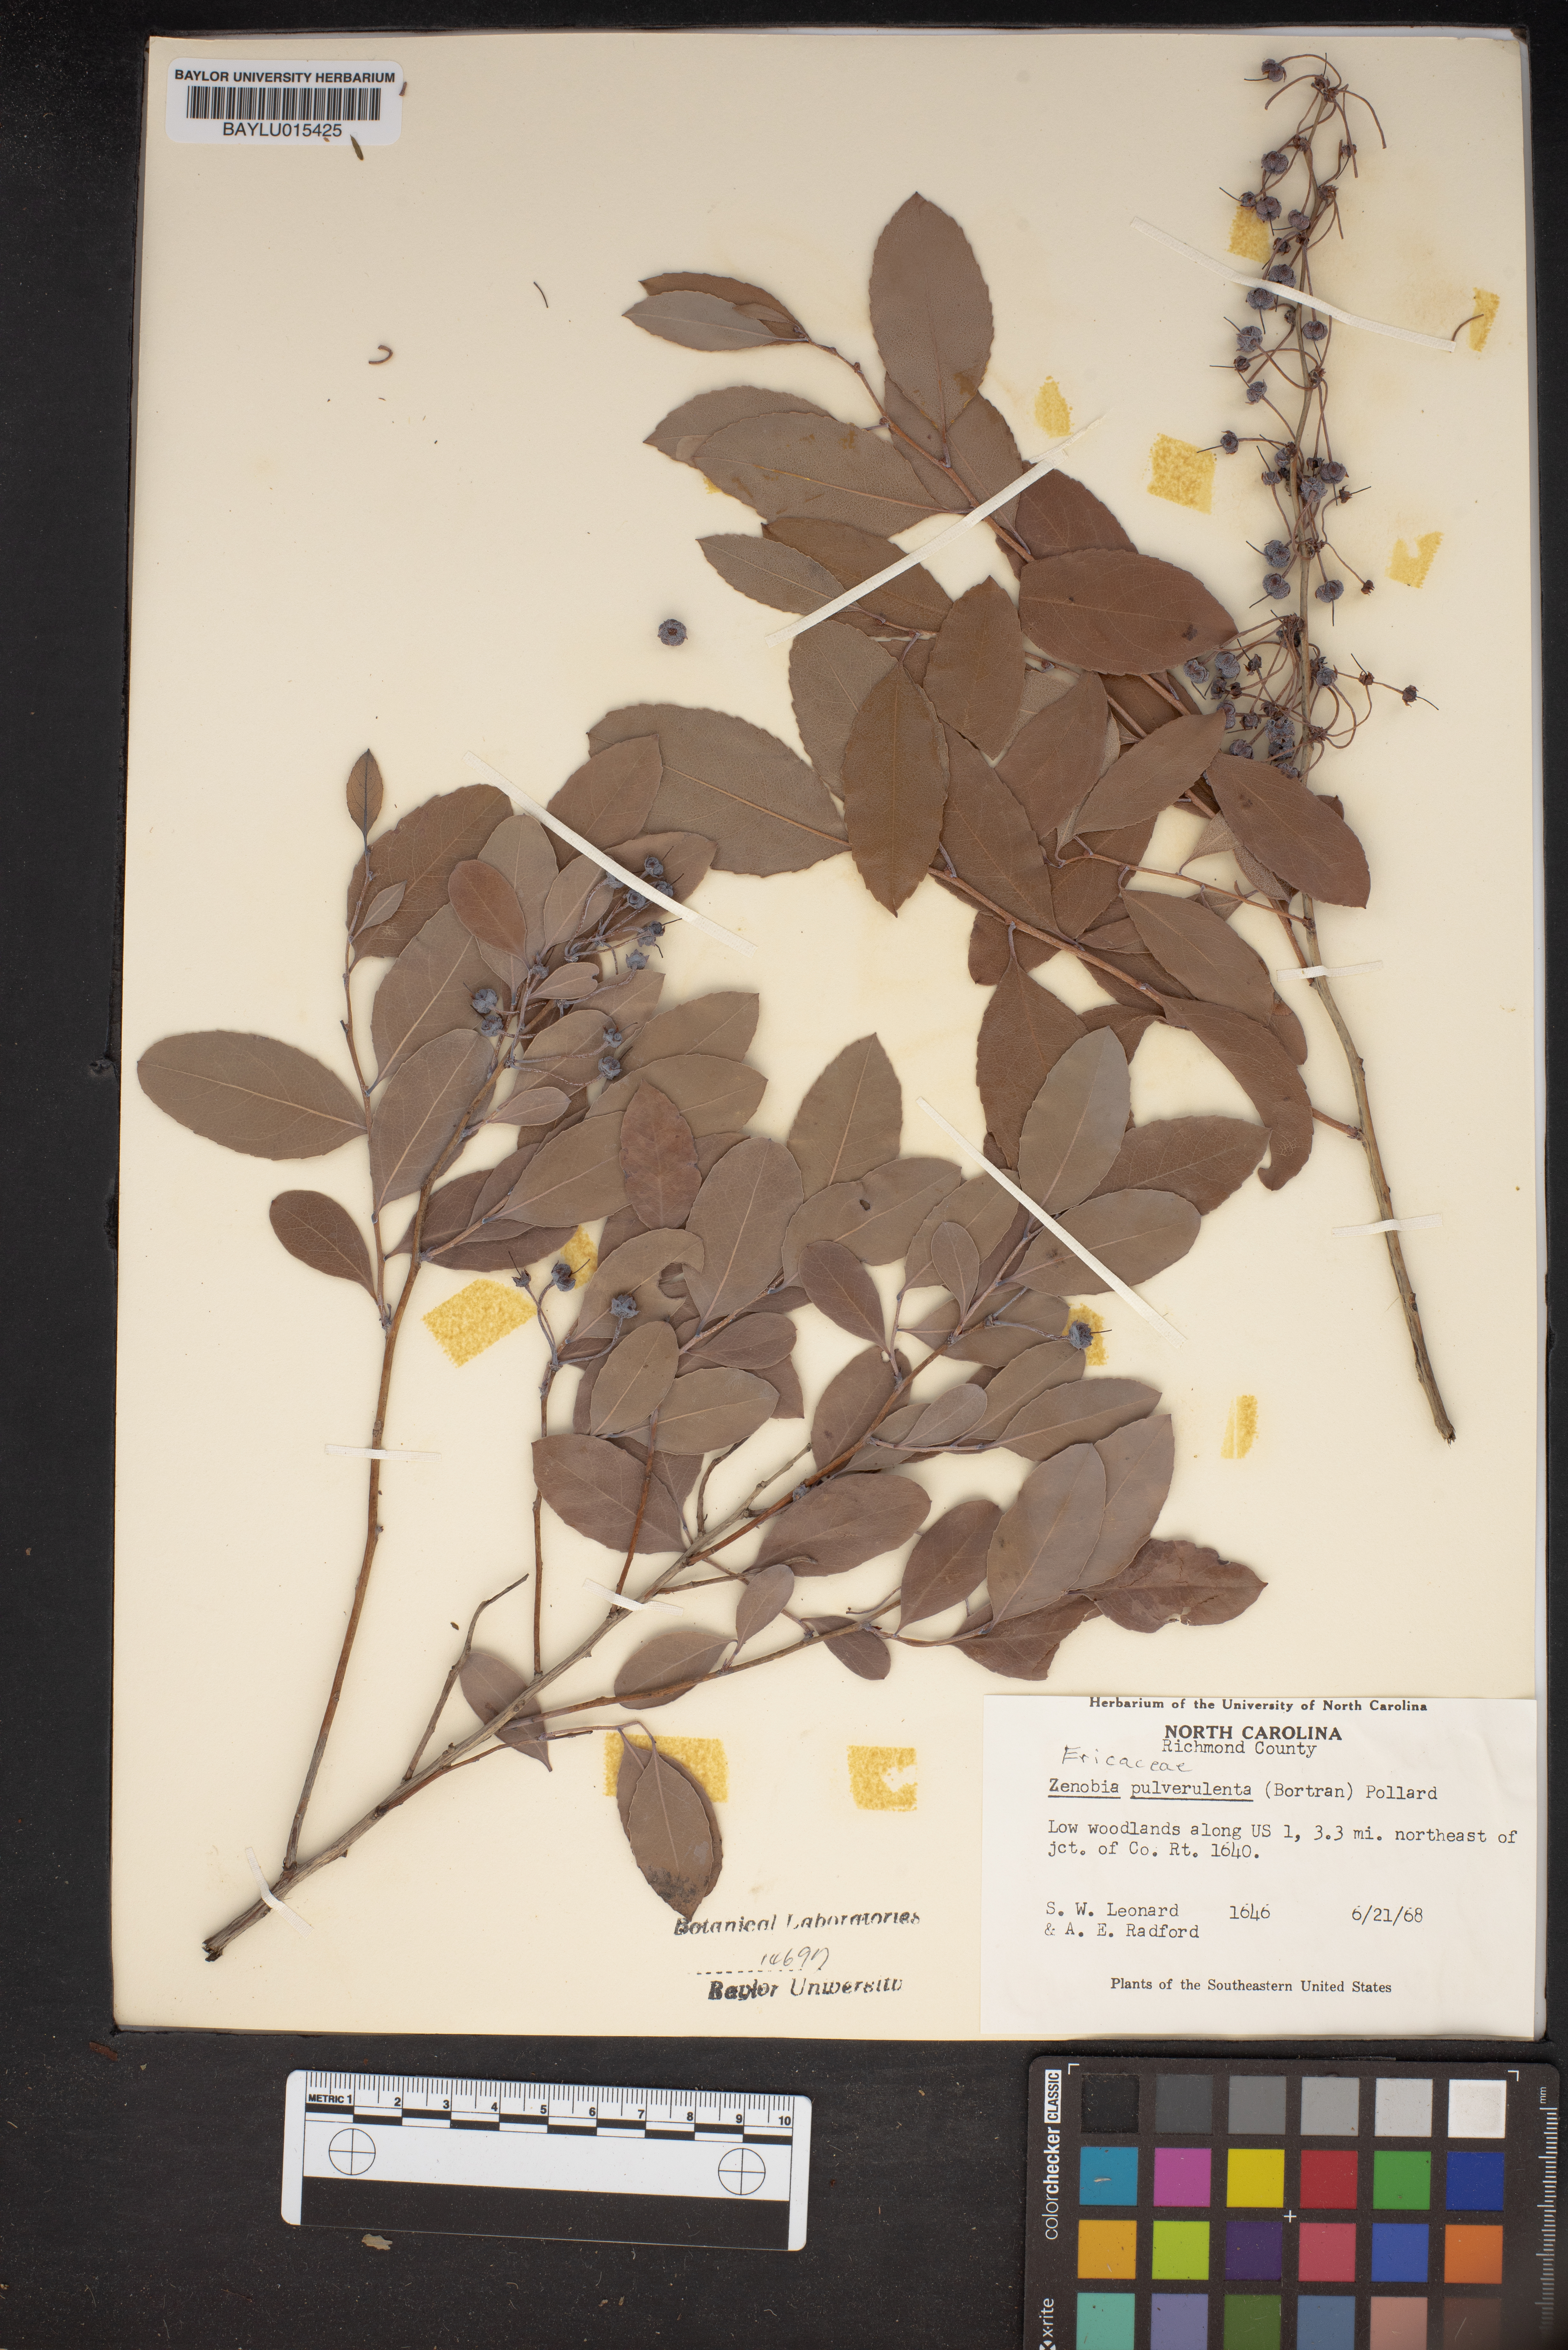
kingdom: Plantae
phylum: Tracheophyta
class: Magnoliopsida
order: Ericales
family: Ericaceae
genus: Zenobia
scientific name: Zenobia pulverulenta
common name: Zenobia
